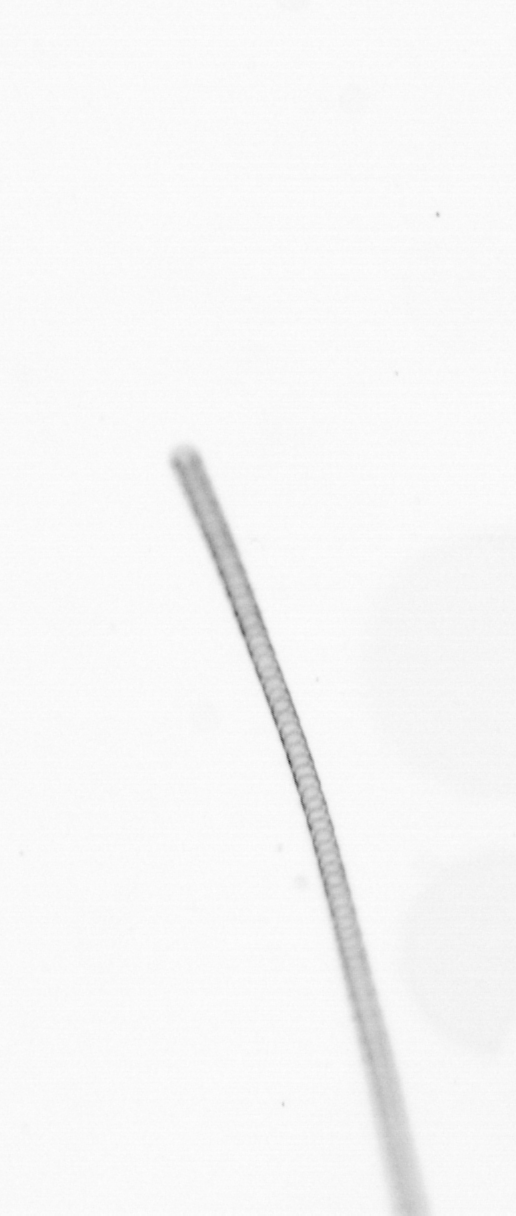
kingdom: Chromista
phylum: Ochrophyta
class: Bacillariophyceae
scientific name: Bacillariophyceae
